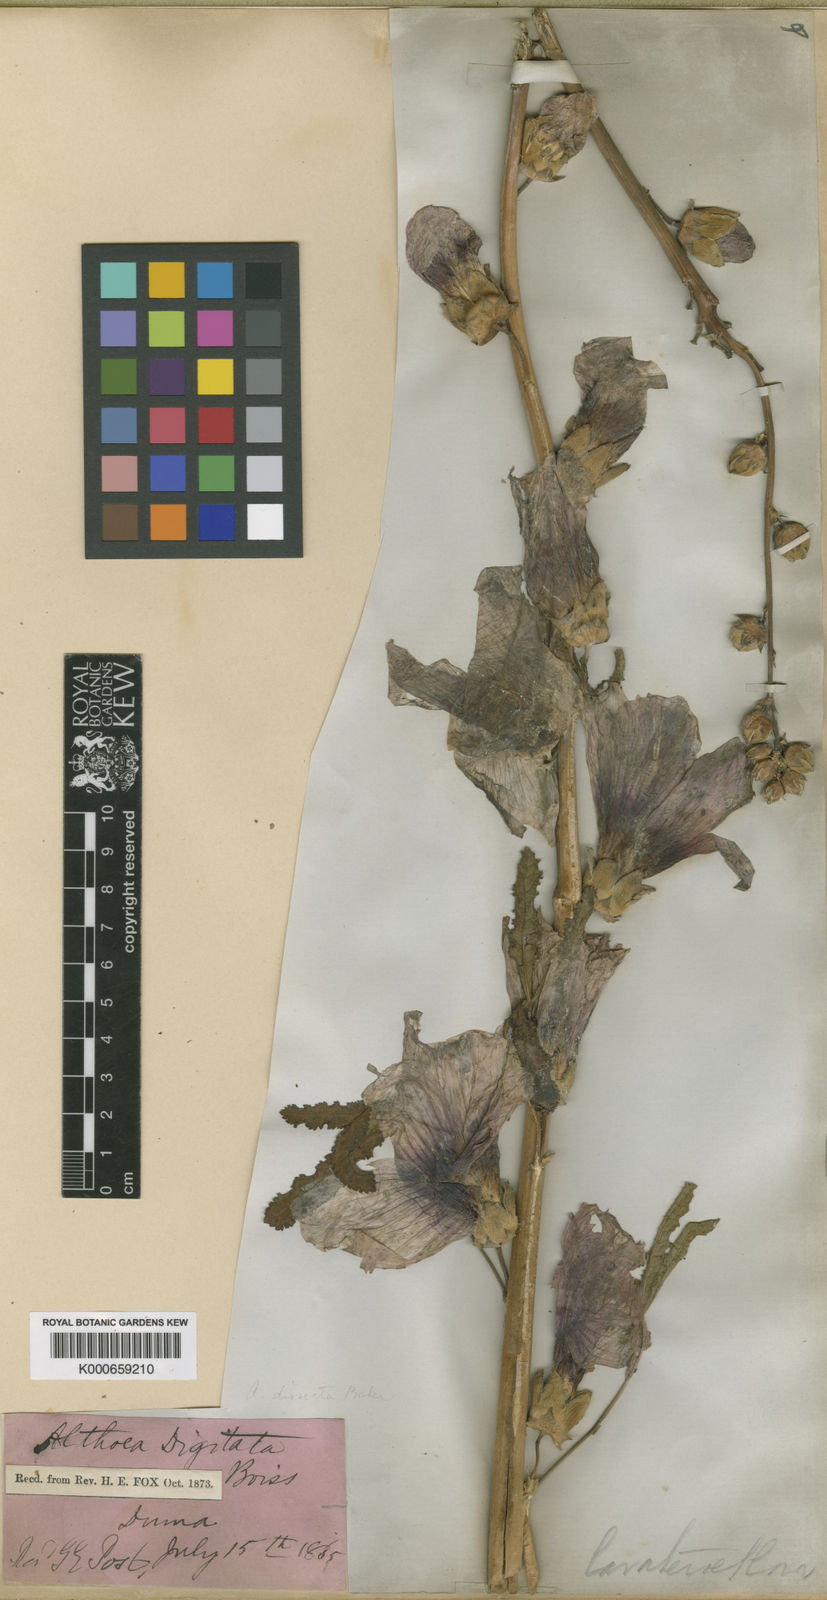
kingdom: Plantae
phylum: Tracheophyta
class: Magnoliopsida
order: Malvales
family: Malvaceae
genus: Alcea
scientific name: Alcea dissecta
